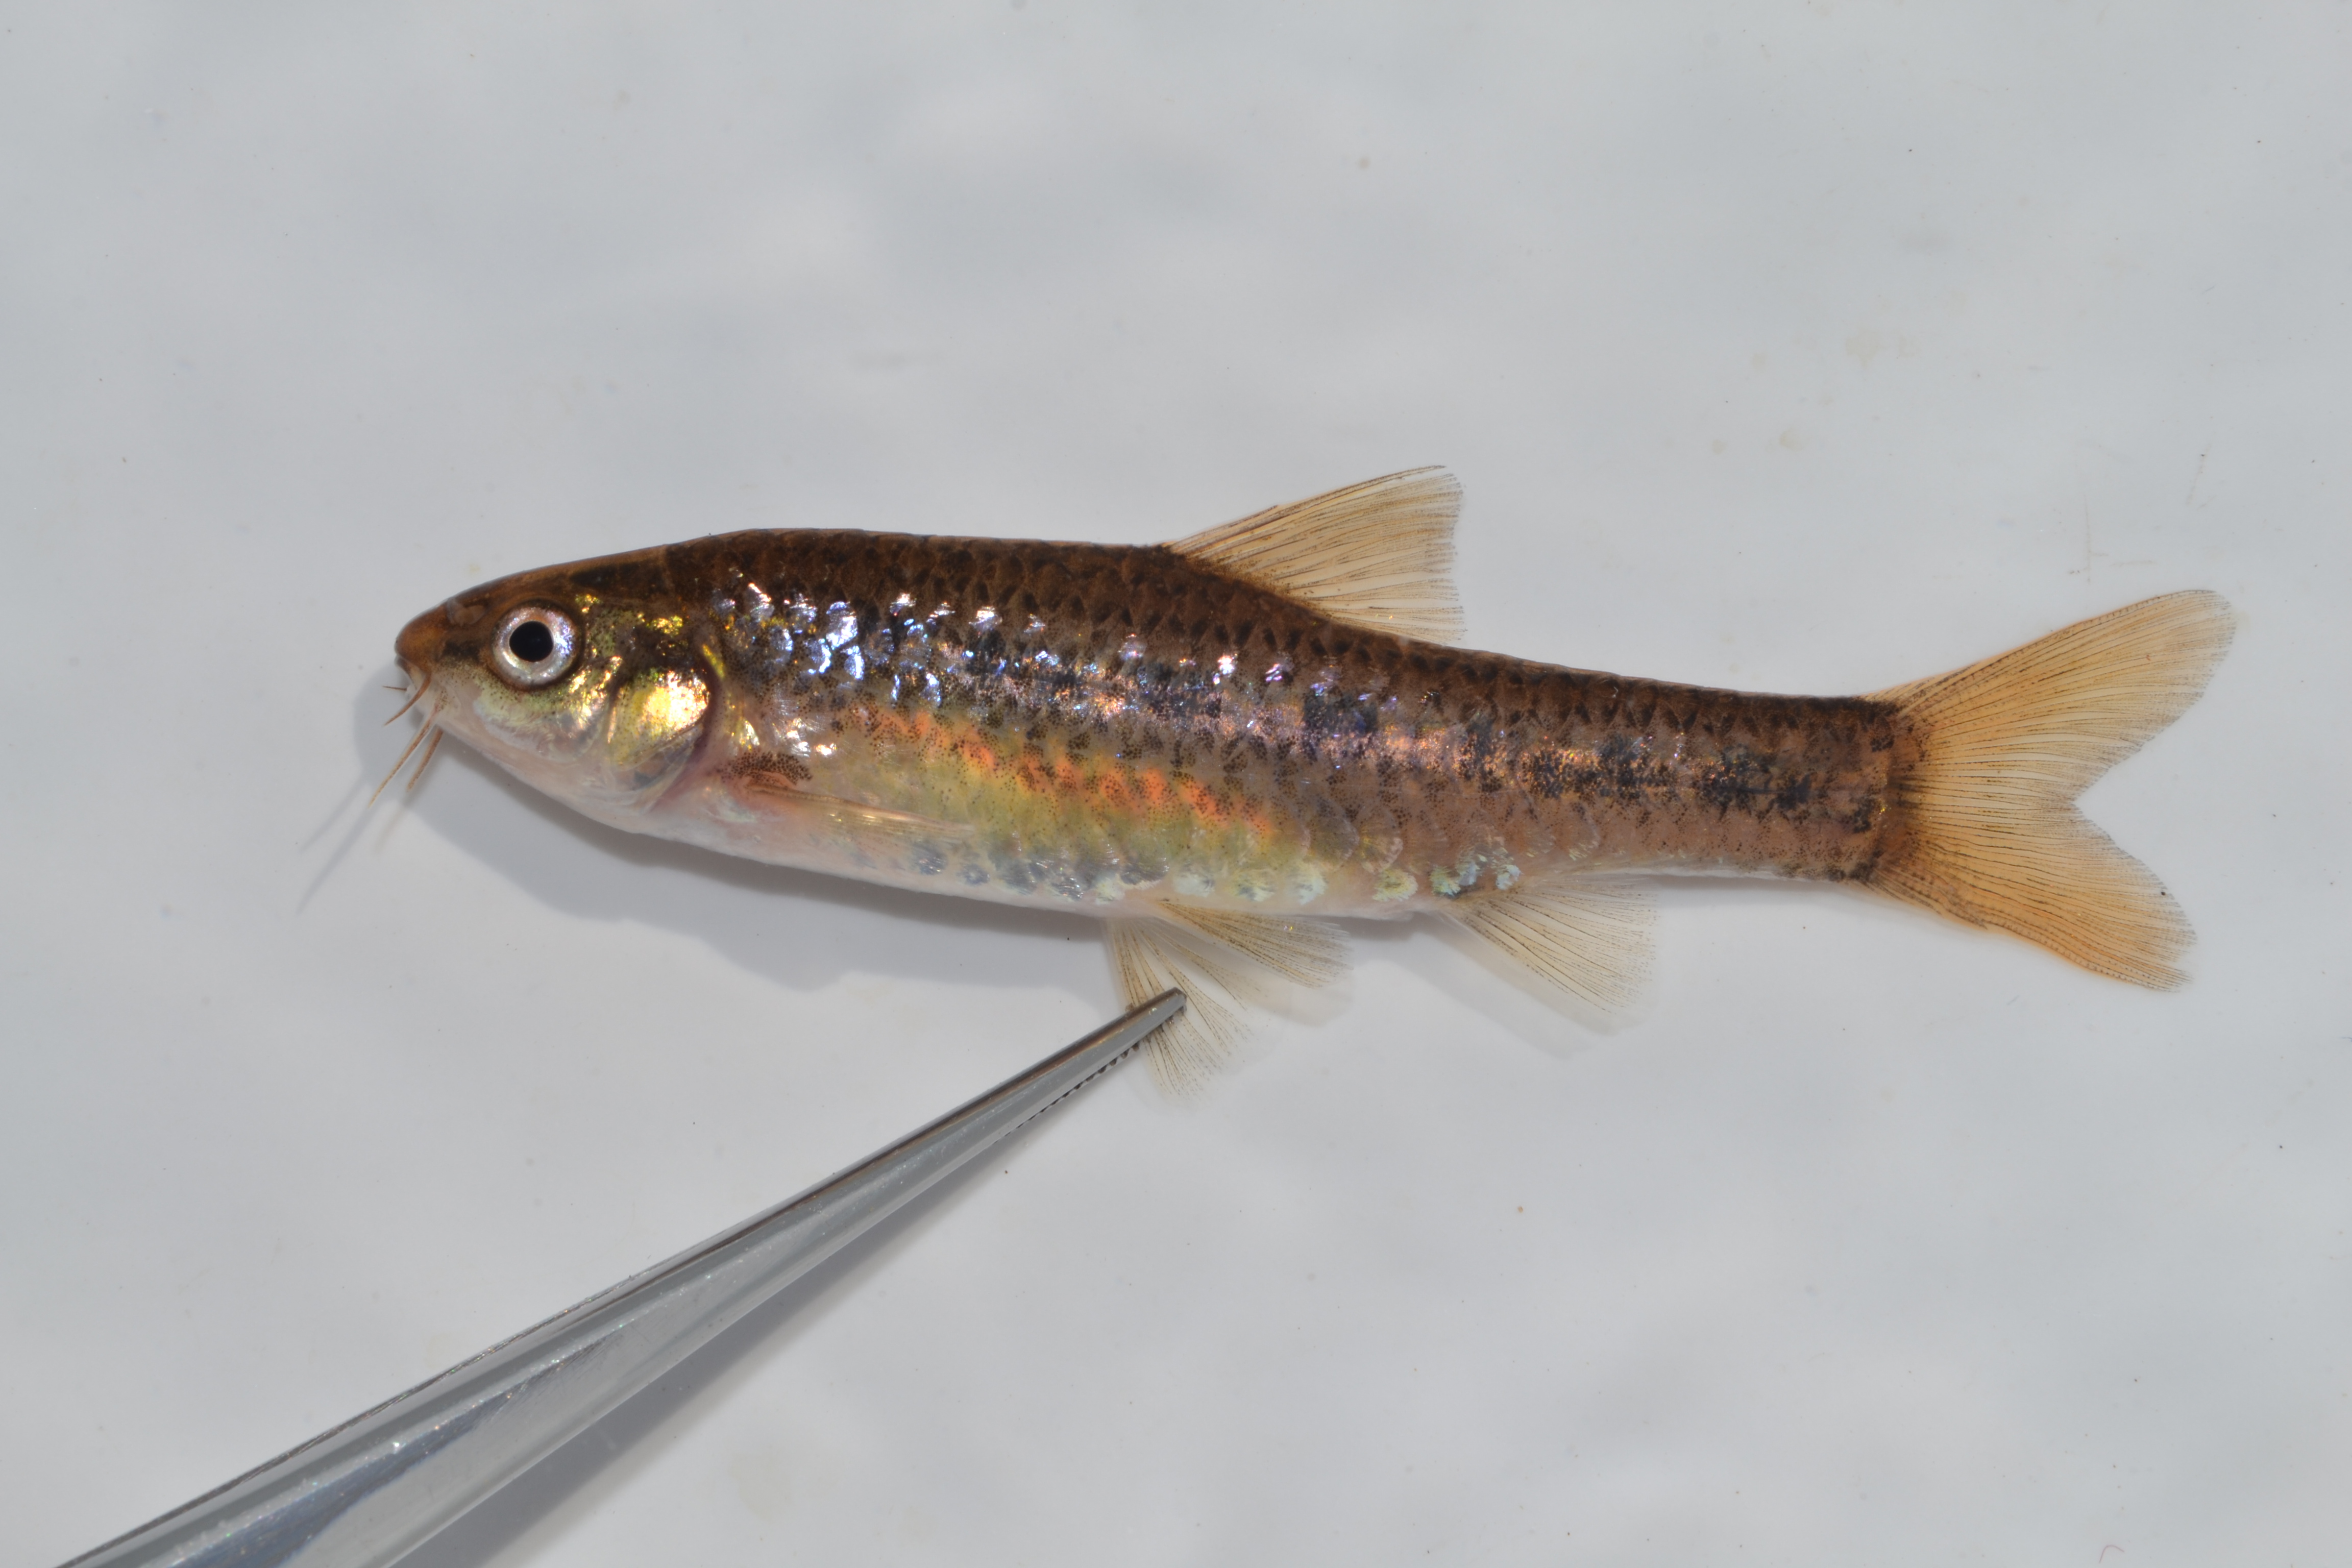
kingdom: Animalia
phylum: Chordata
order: Cypriniformes
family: Cyprinidae
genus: Enteromius
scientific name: Enteromius brevipinnis
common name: Shortfin barb
